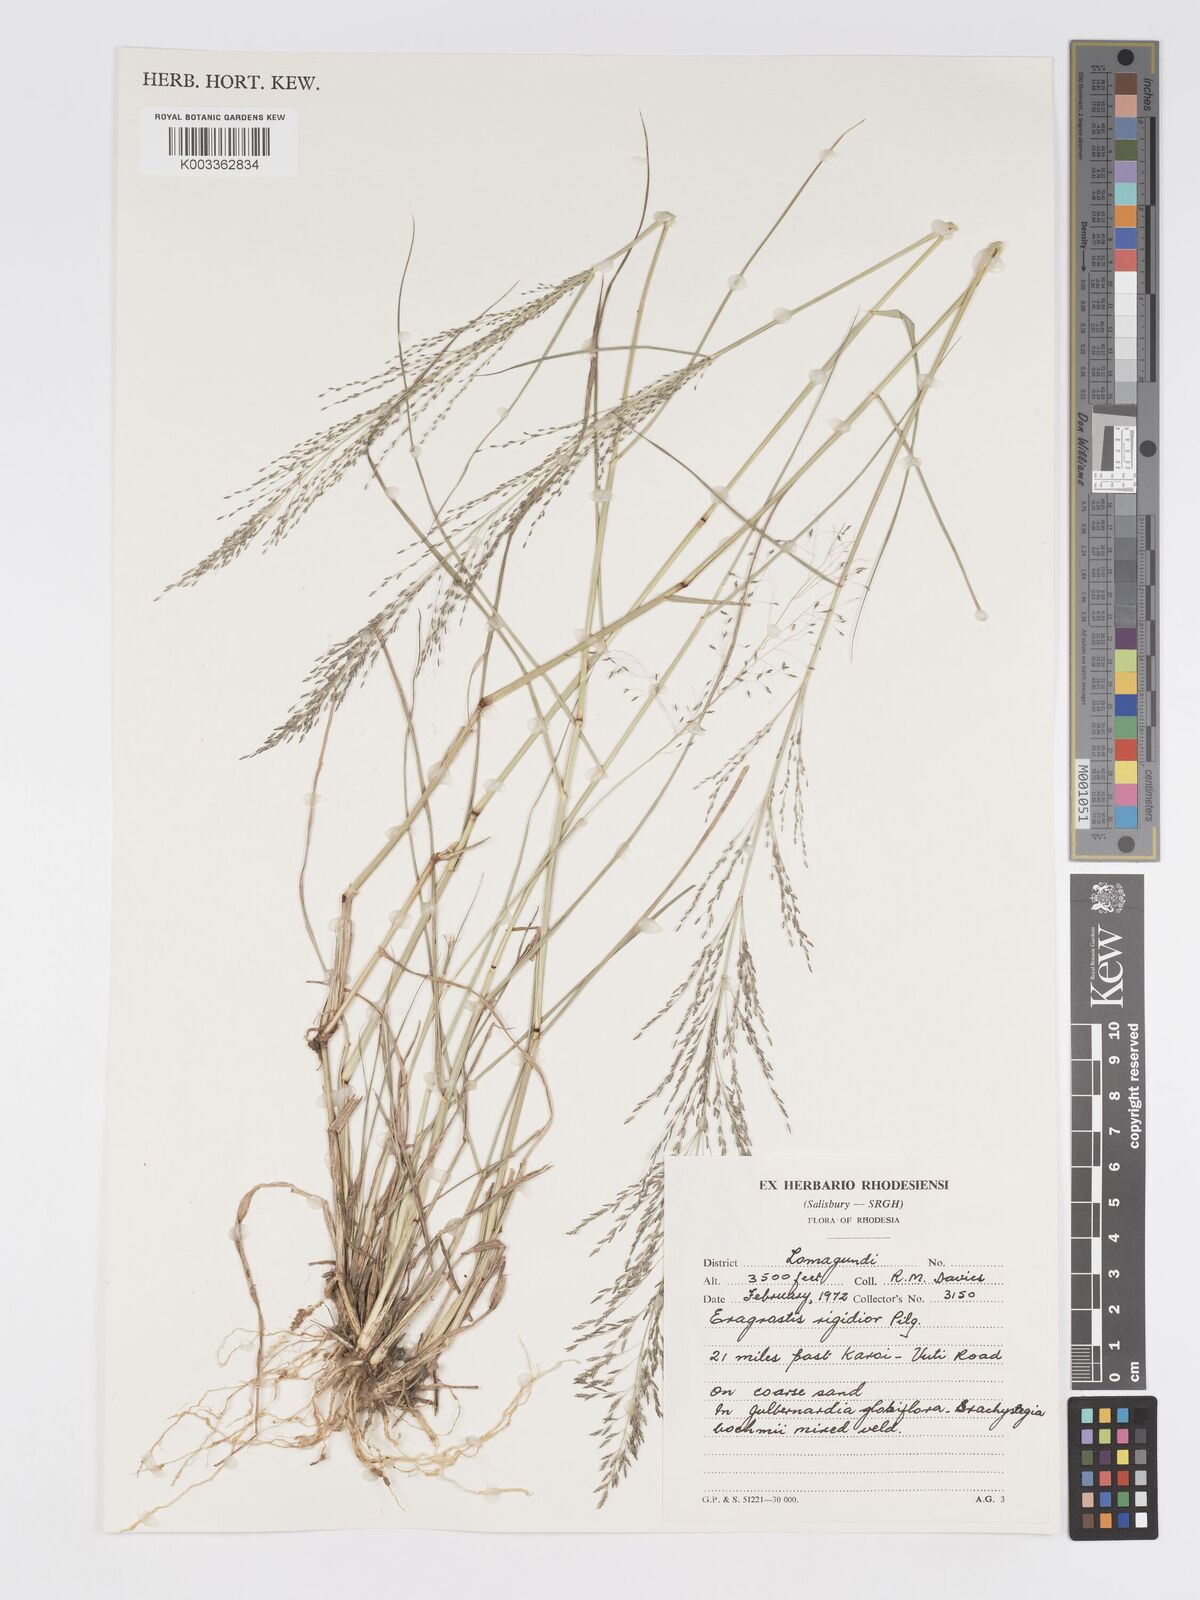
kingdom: Plantae
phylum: Tracheophyta
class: Liliopsida
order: Poales
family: Poaceae
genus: Eragrostis
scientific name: Eragrostis cylindriflora
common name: Cylinderflower lovegrass
